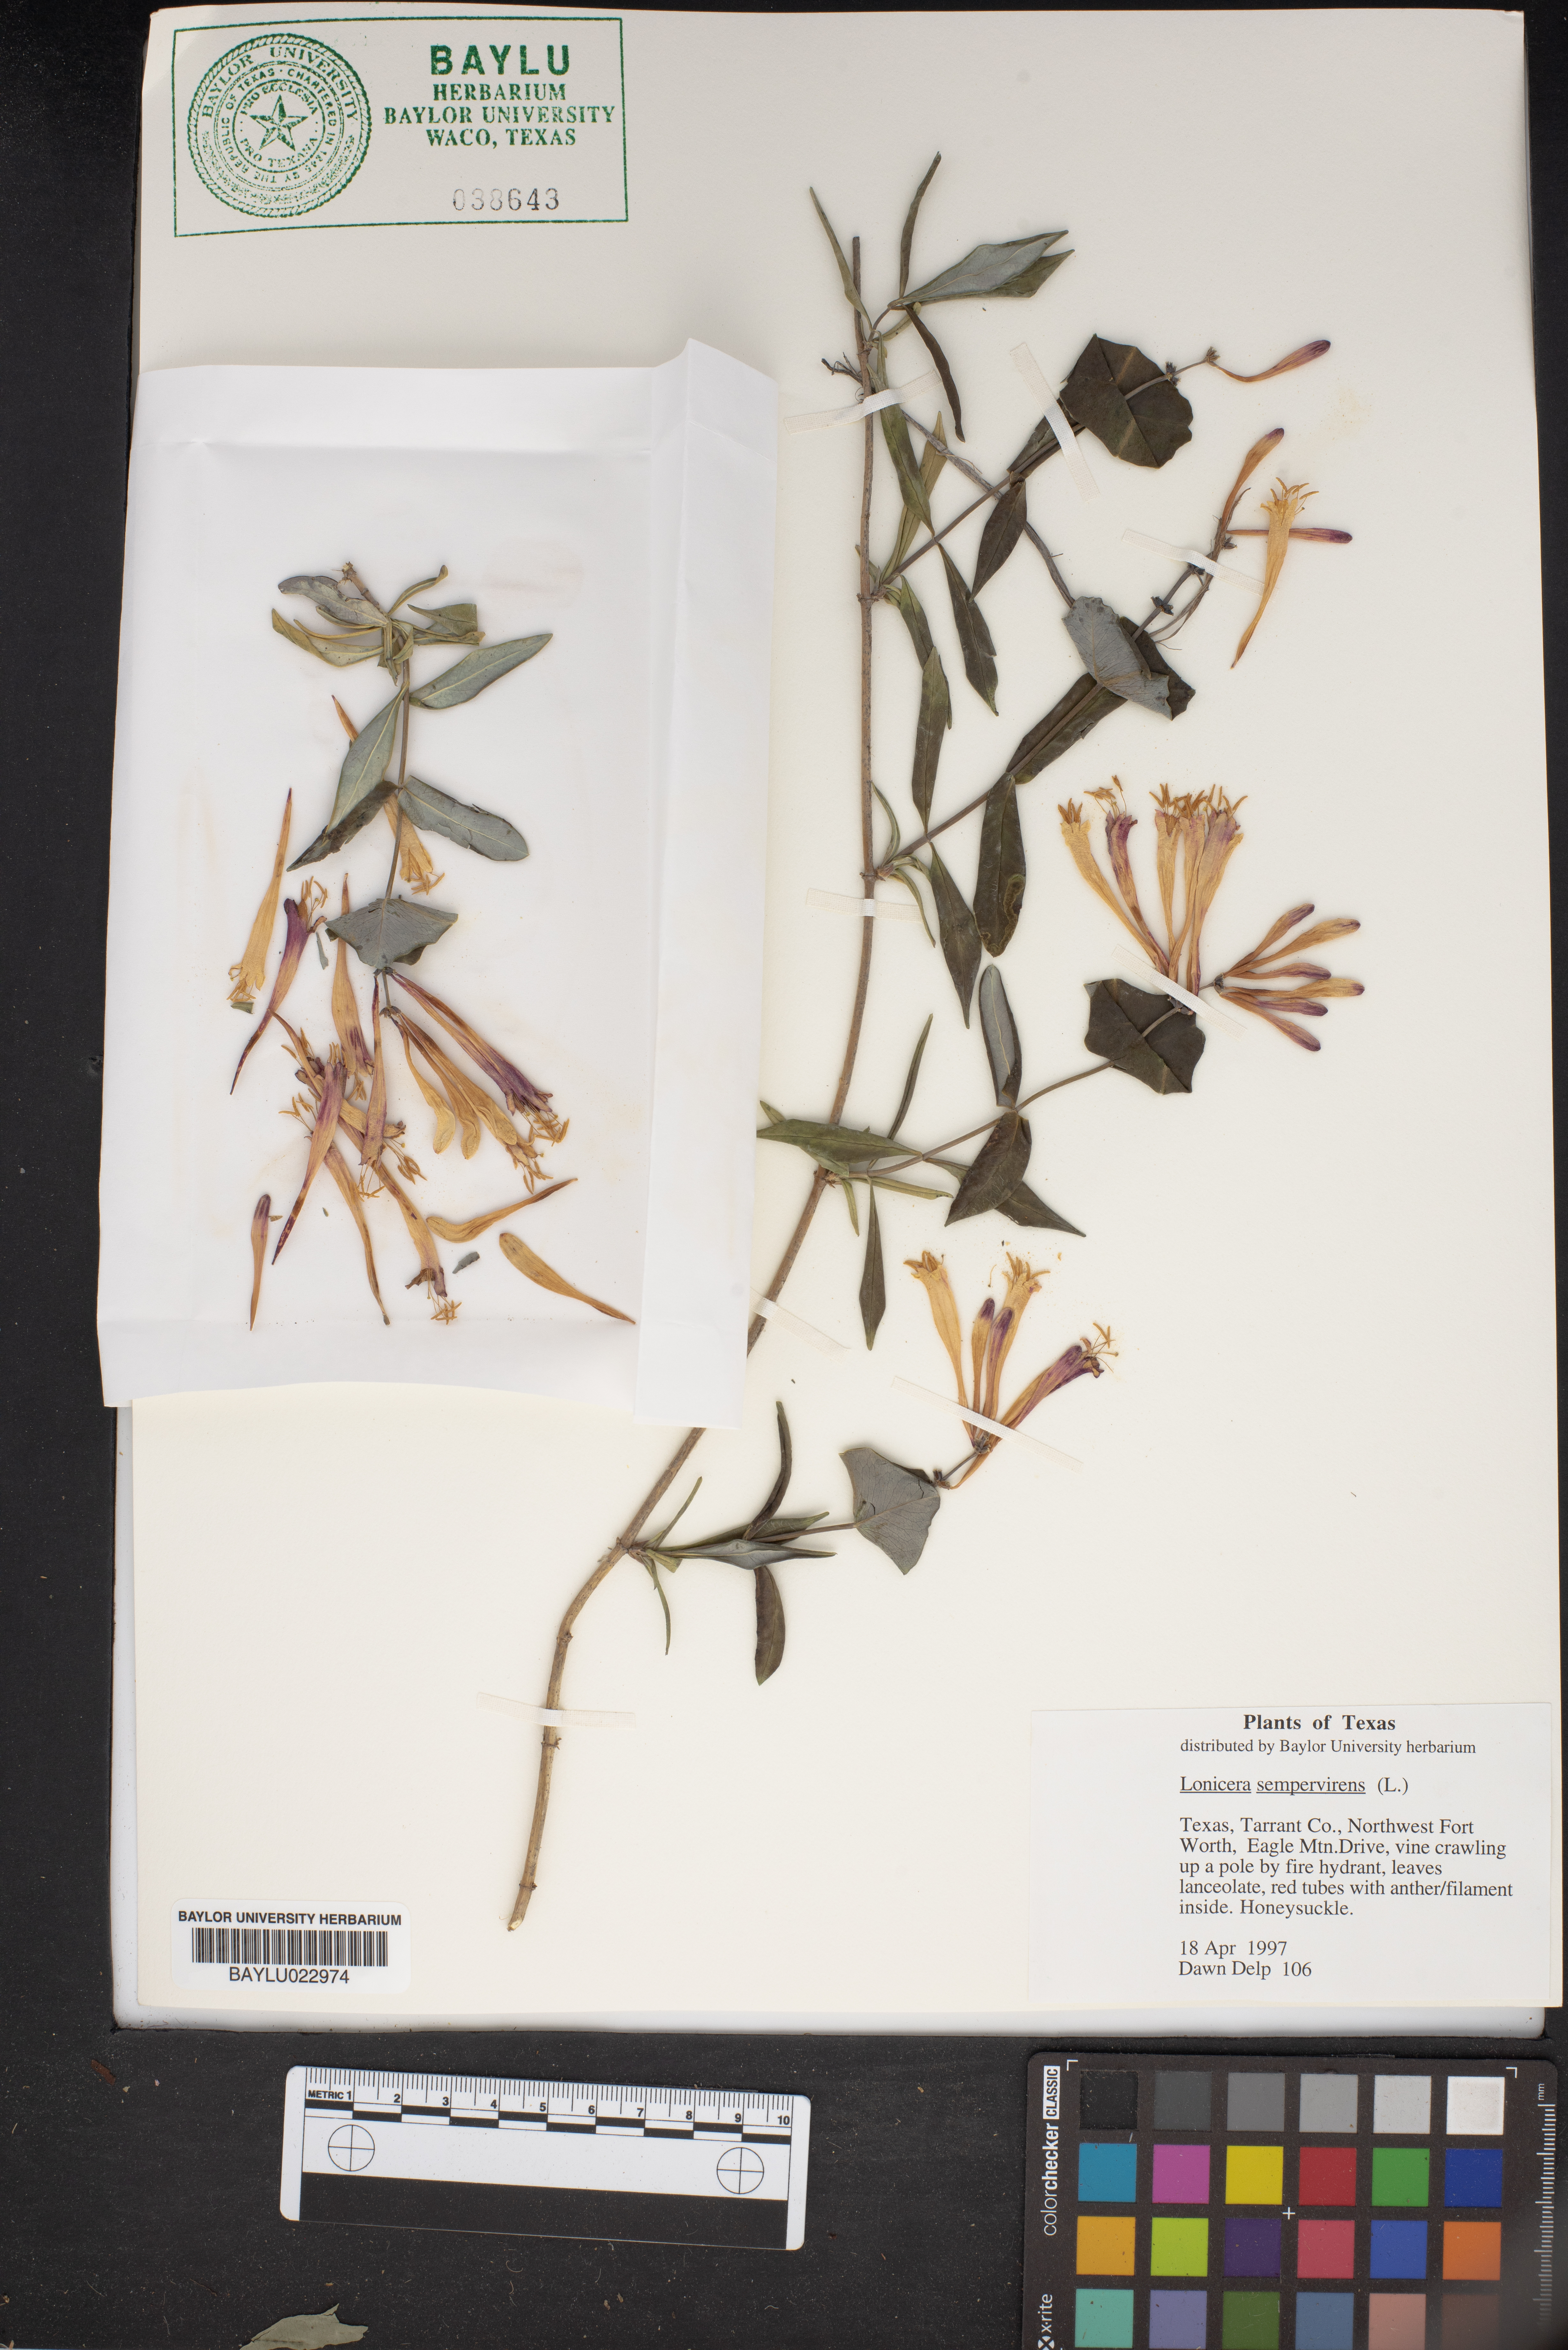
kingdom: Plantae
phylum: Tracheophyta
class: Magnoliopsida
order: Dipsacales
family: Caprifoliaceae
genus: Lonicera
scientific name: Lonicera sempervirens
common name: Coral honeysuckle
